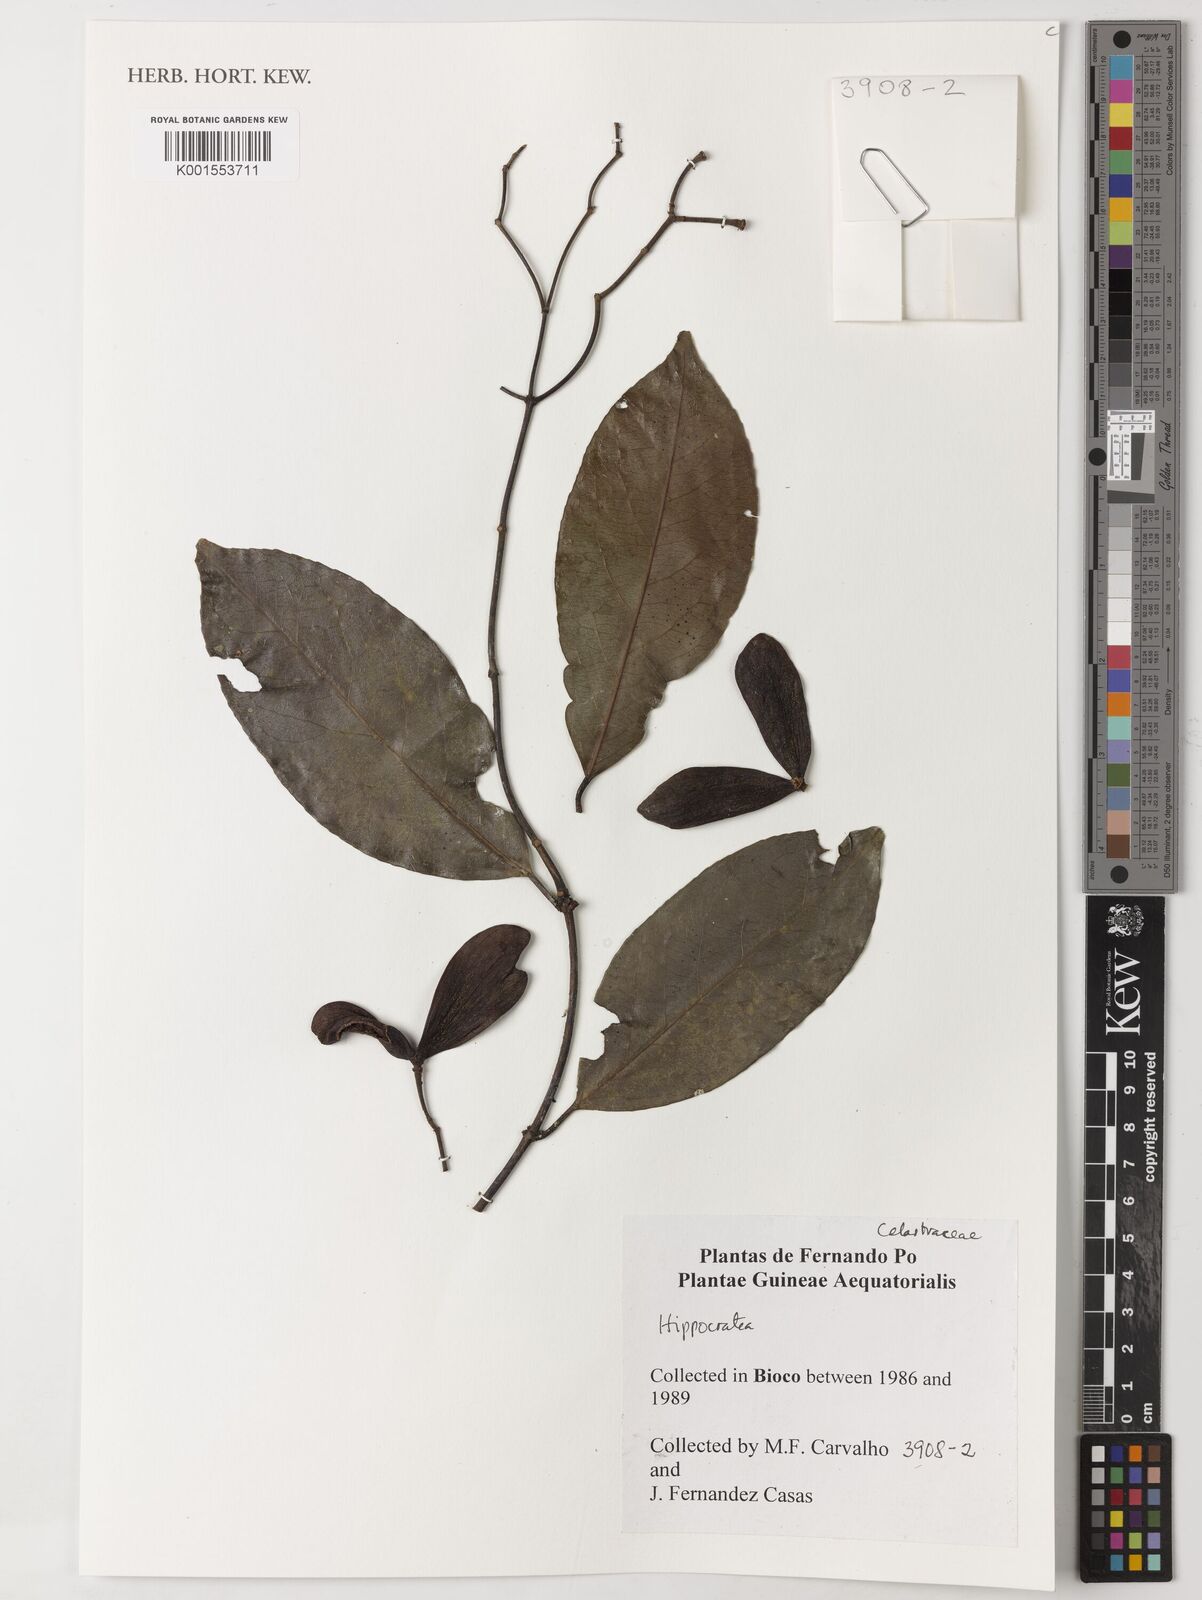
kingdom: Plantae
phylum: Tracheophyta
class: Magnoliopsida
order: Celastrales
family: Celastraceae
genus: Hippocratea
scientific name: Hippocratea
